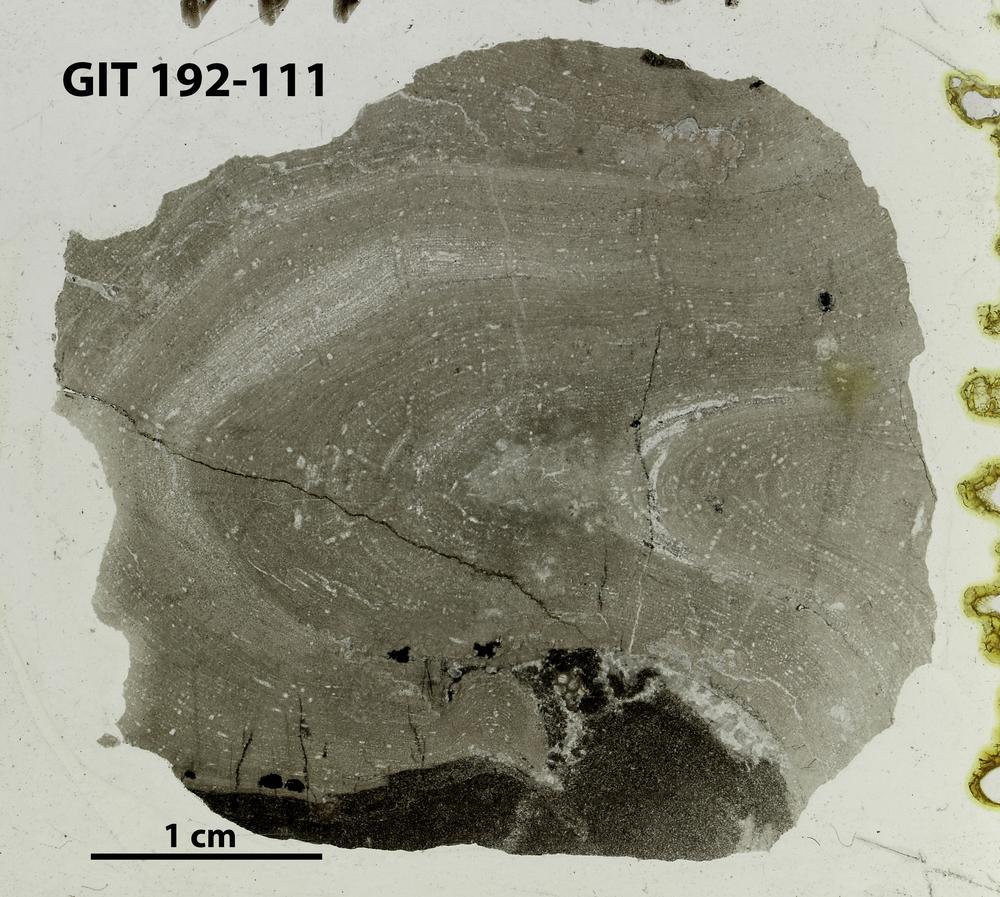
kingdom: Animalia
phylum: Porifera
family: Densastromatidae
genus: Araneosustroma
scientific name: Araneosustroma
